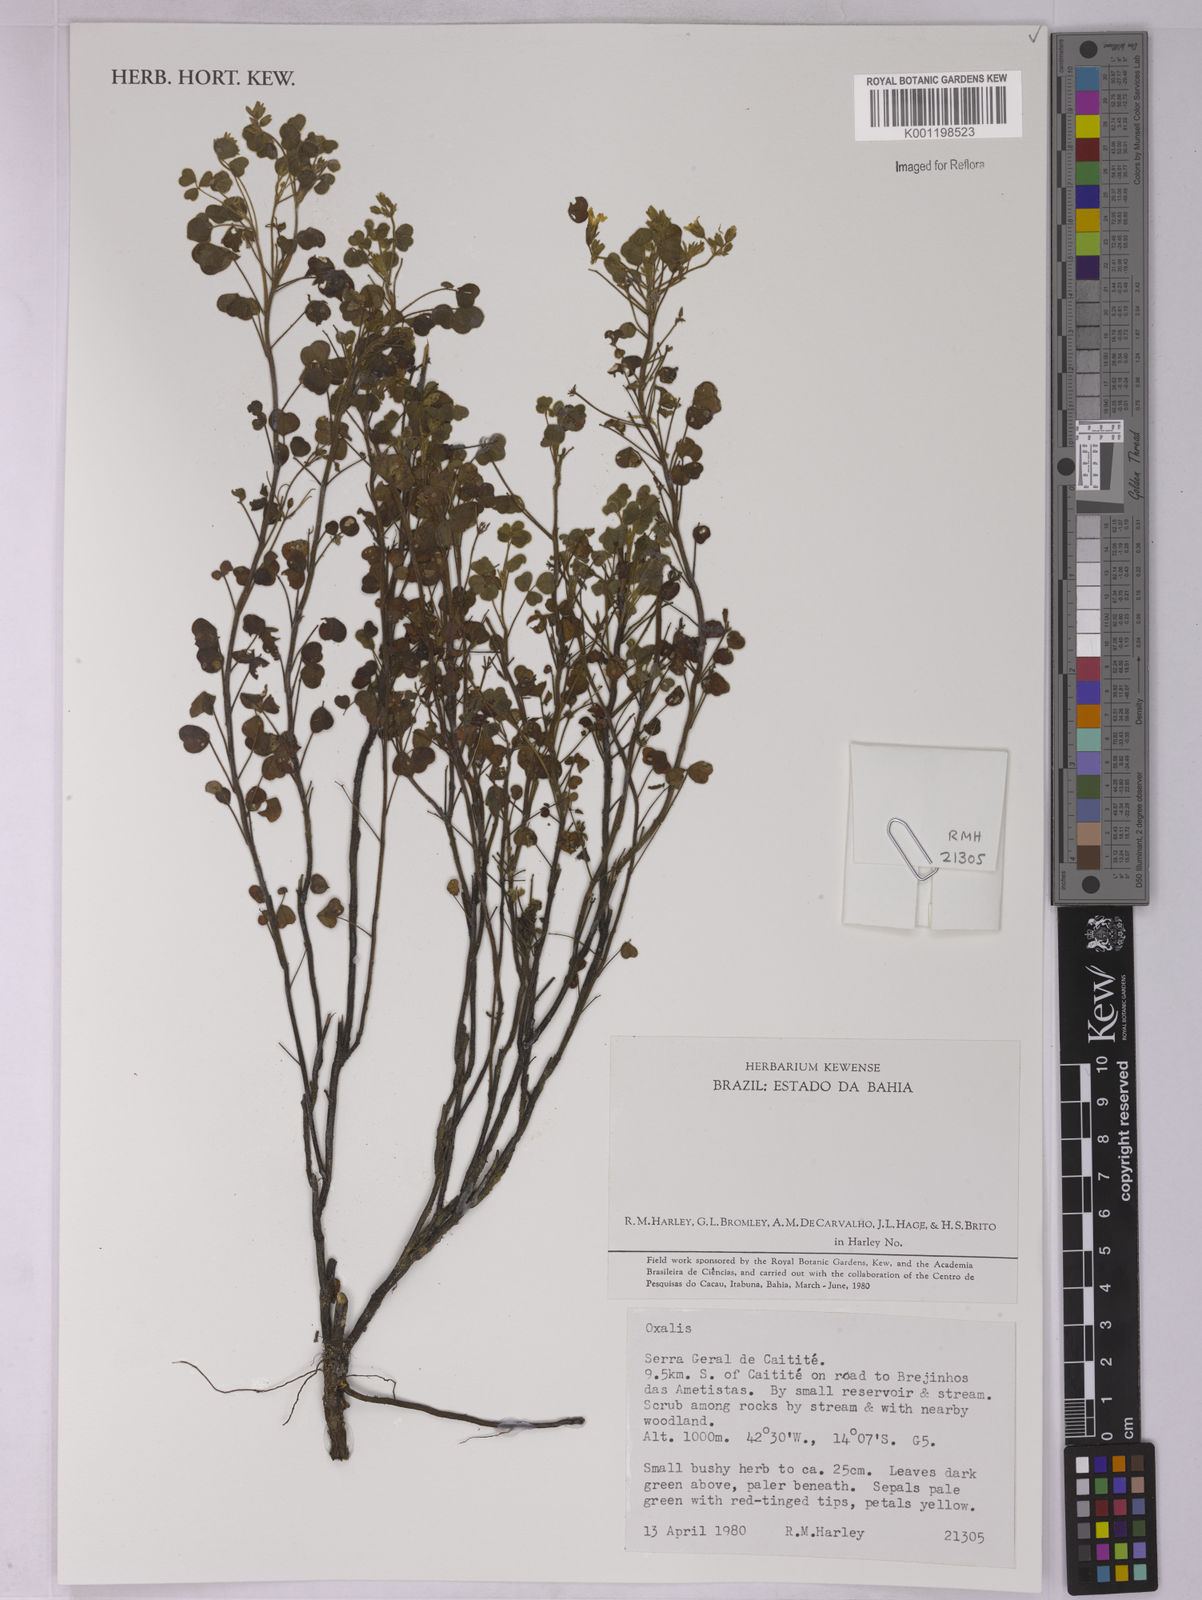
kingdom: Plantae
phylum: Tracheophyta
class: Magnoliopsida
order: Oxalidales
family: Oxalidaceae
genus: Oxalis
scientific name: Oxalis
